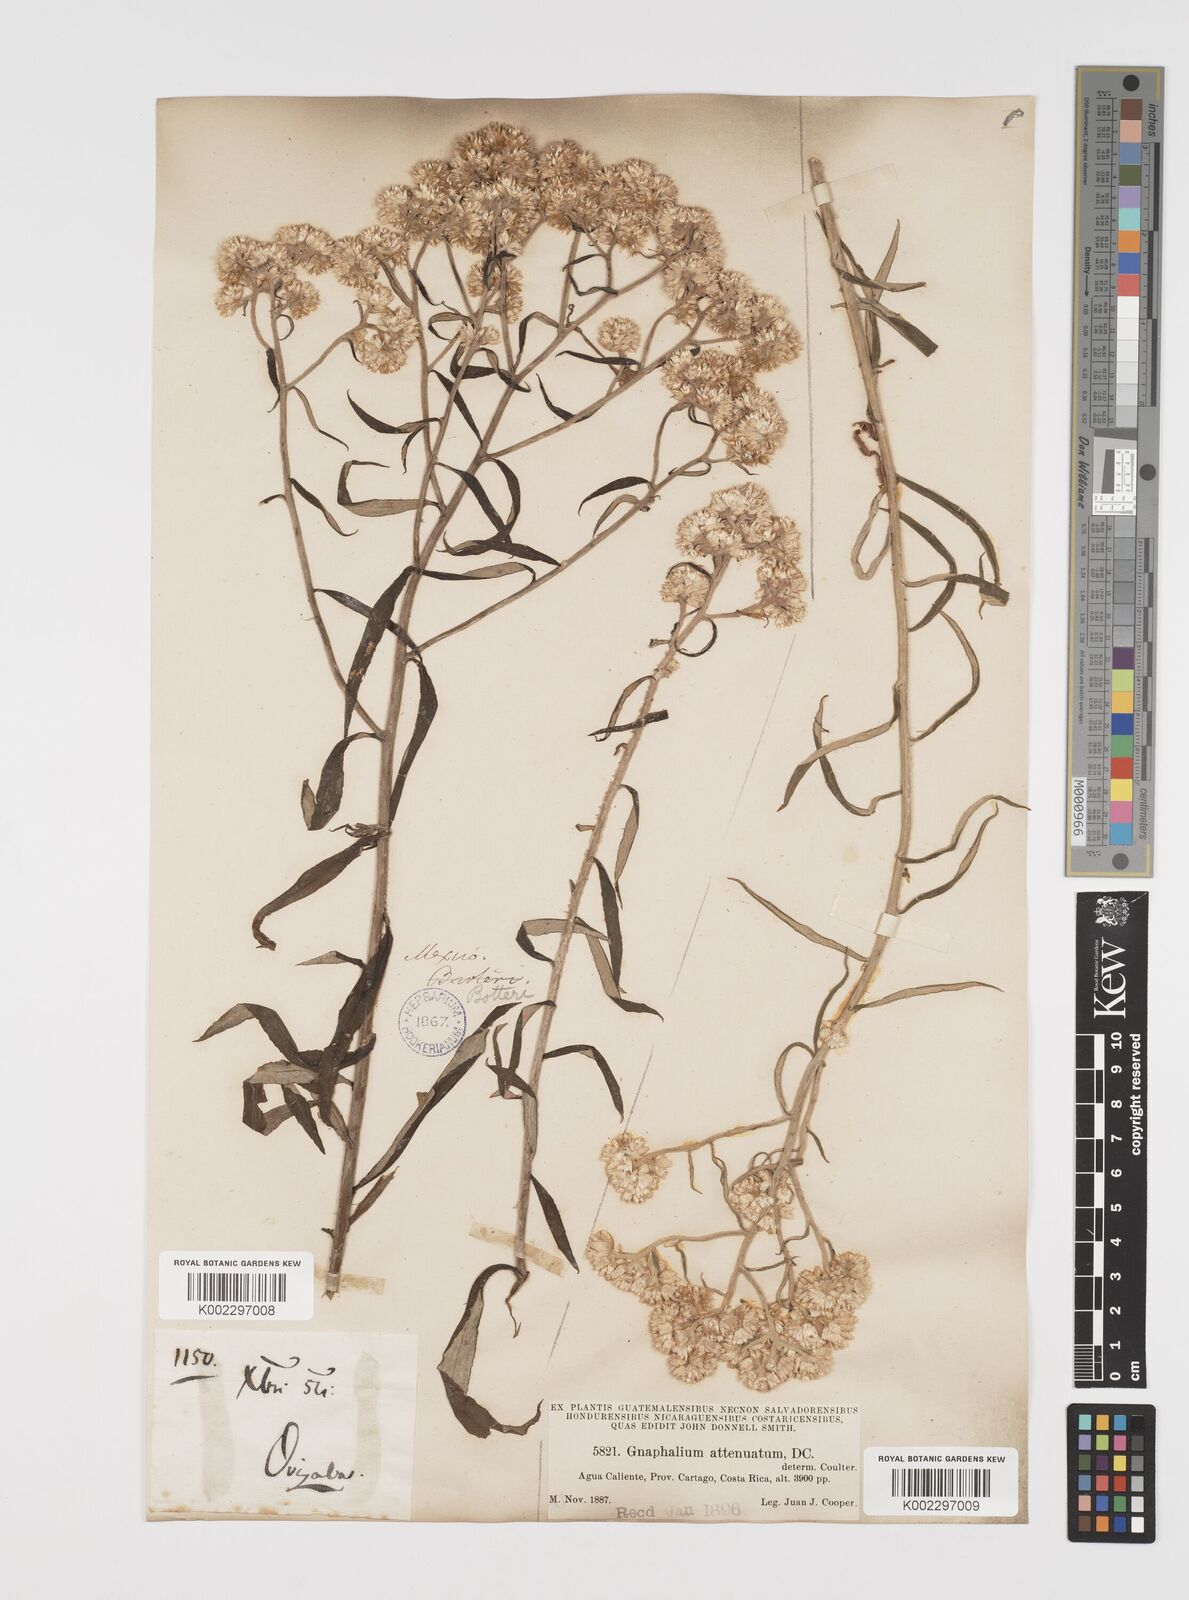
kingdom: Plantae
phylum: Tracheophyta
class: Magnoliopsida
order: Asterales
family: Asteraceae
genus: Pseudognaphalium
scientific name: Pseudognaphalium attenuatum
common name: Tapered cudweed
